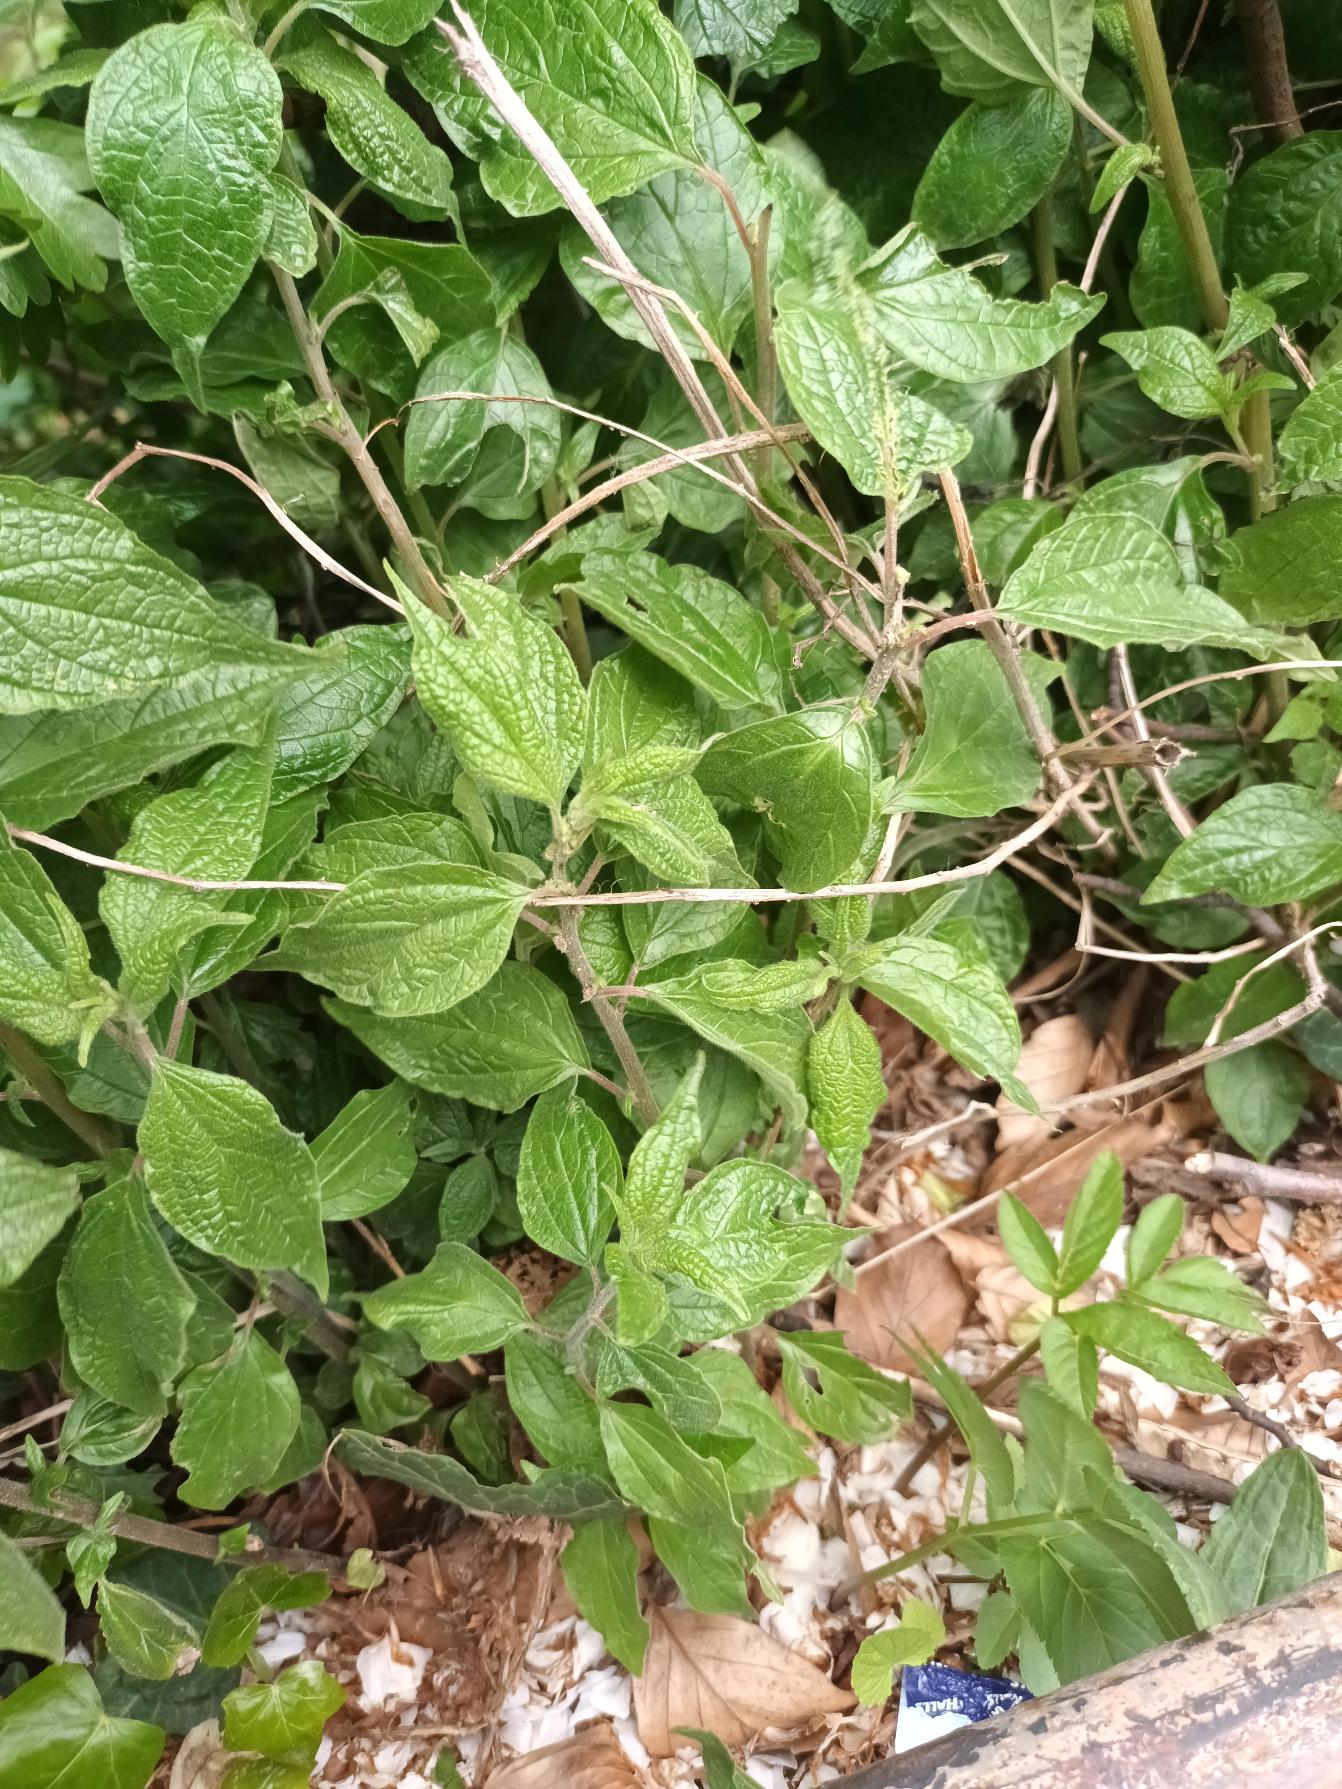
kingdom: Plantae
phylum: Tracheophyta
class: Magnoliopsida
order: Rosales
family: Urticaceae
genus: Parietaria
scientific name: Parietaria officinalis
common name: Almindelig springknap
